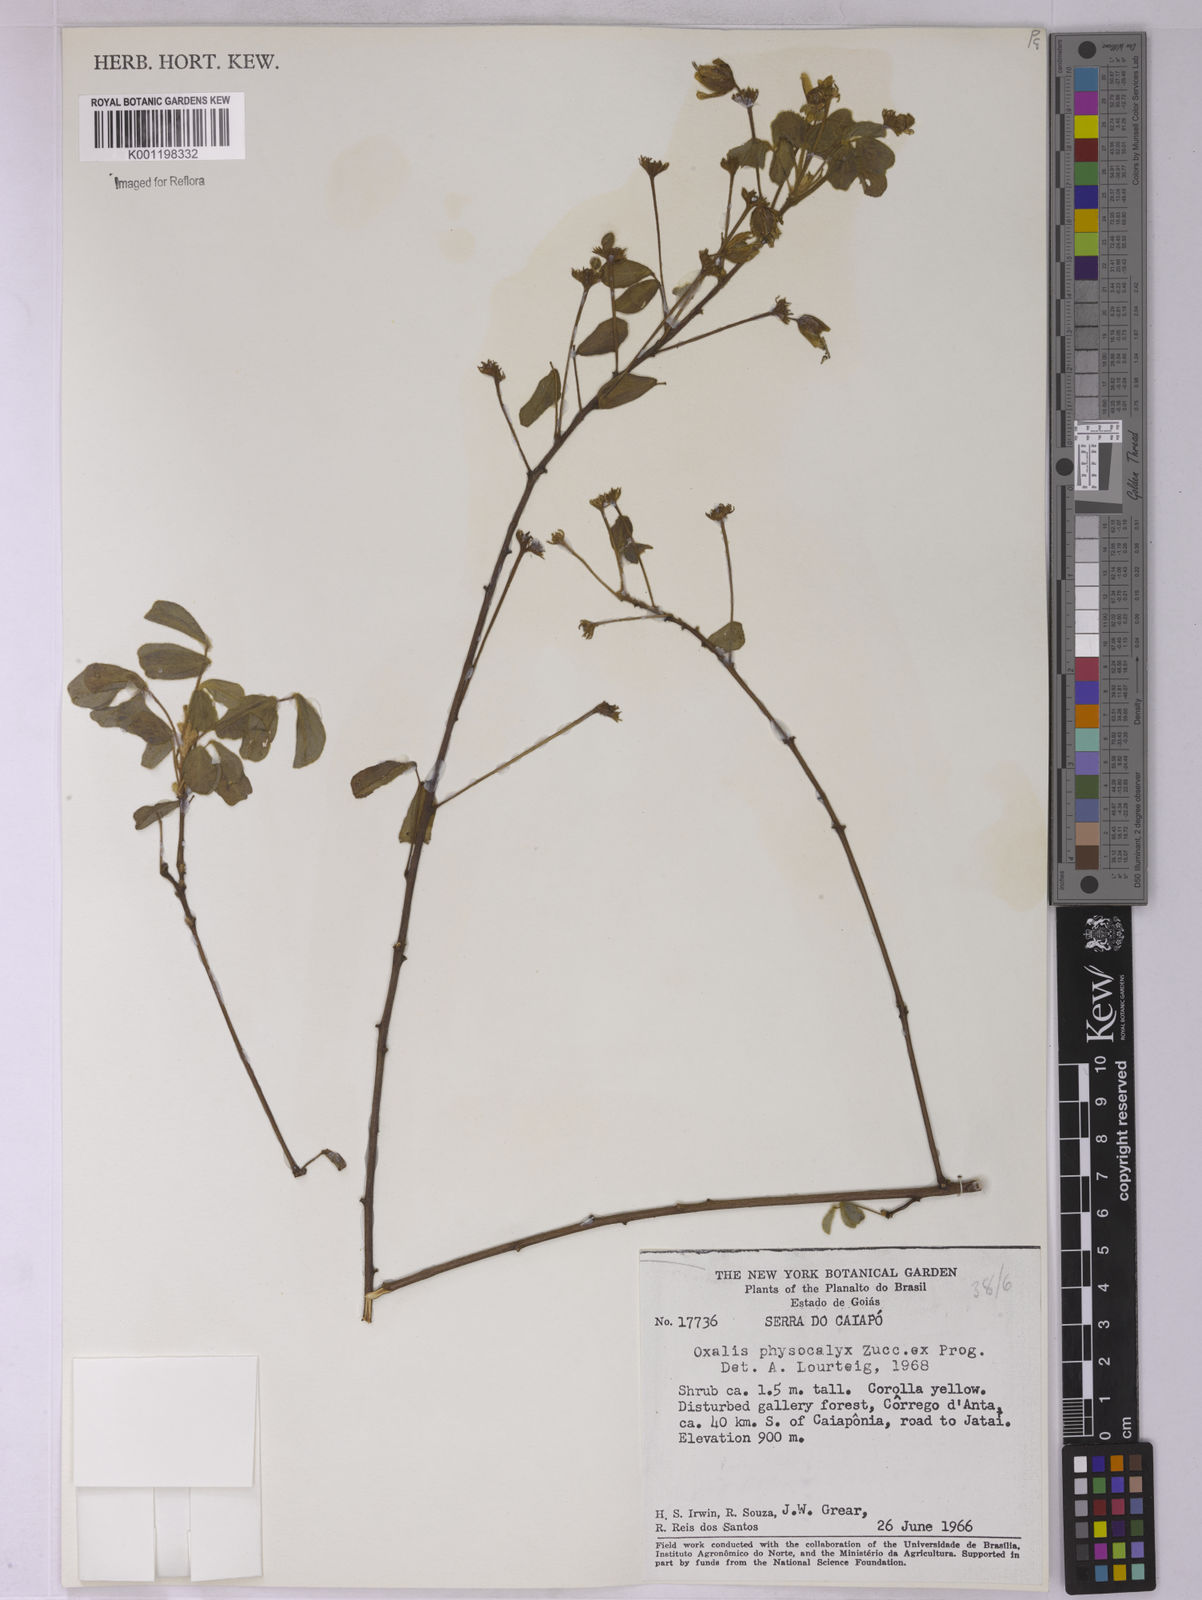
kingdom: Plantae
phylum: Tracheophyta
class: Magnoliopsida
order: Oxalidales
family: Oxalidaceae
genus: Oxalis
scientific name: Oxalis physocalyx
